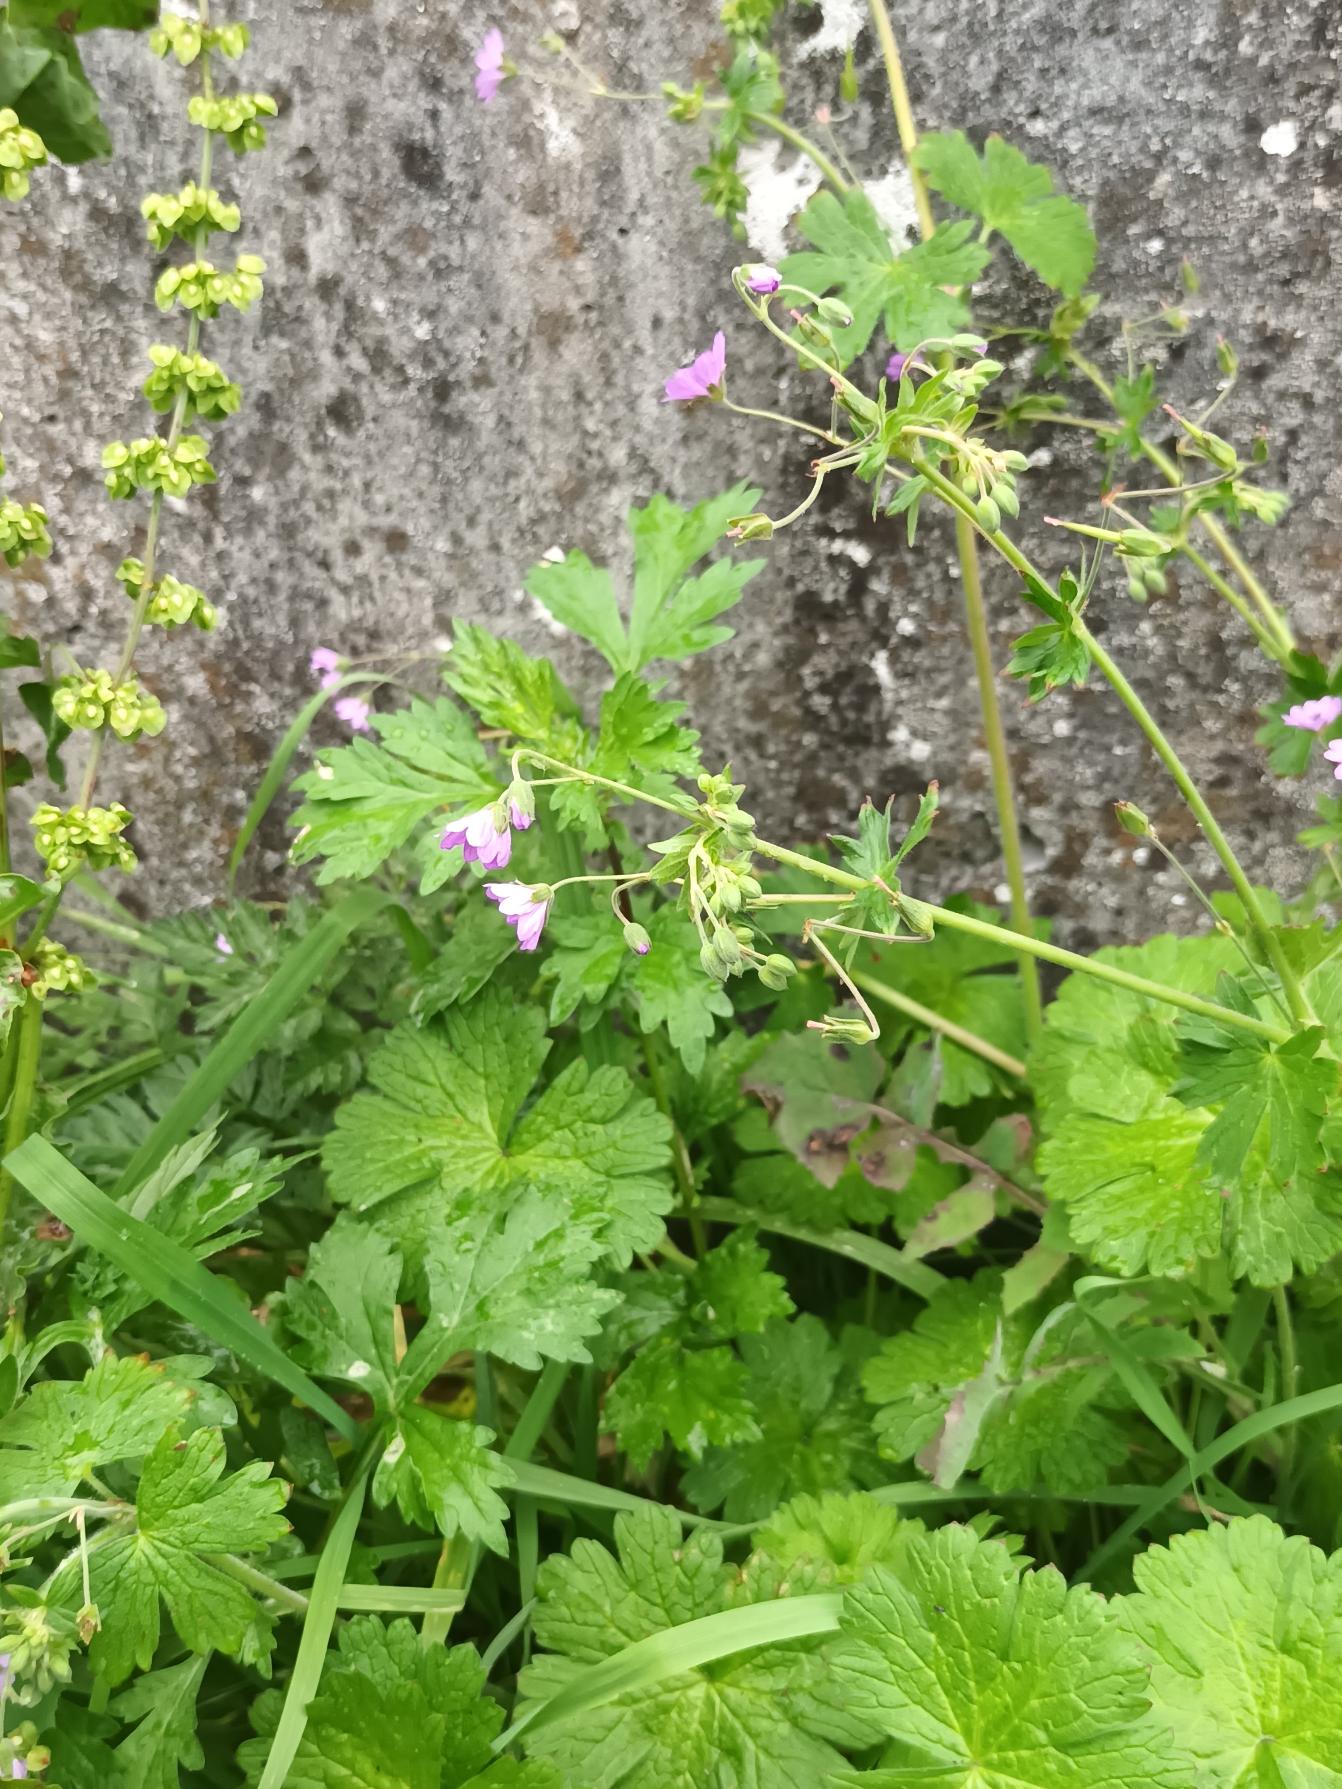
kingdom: Plantae
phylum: Tracheophyta
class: Magnoliopsida
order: Geraniales
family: Geraniaceae
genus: Geranium
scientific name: Geranium pyrenaicum
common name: Pyrenæisk storkenæb
